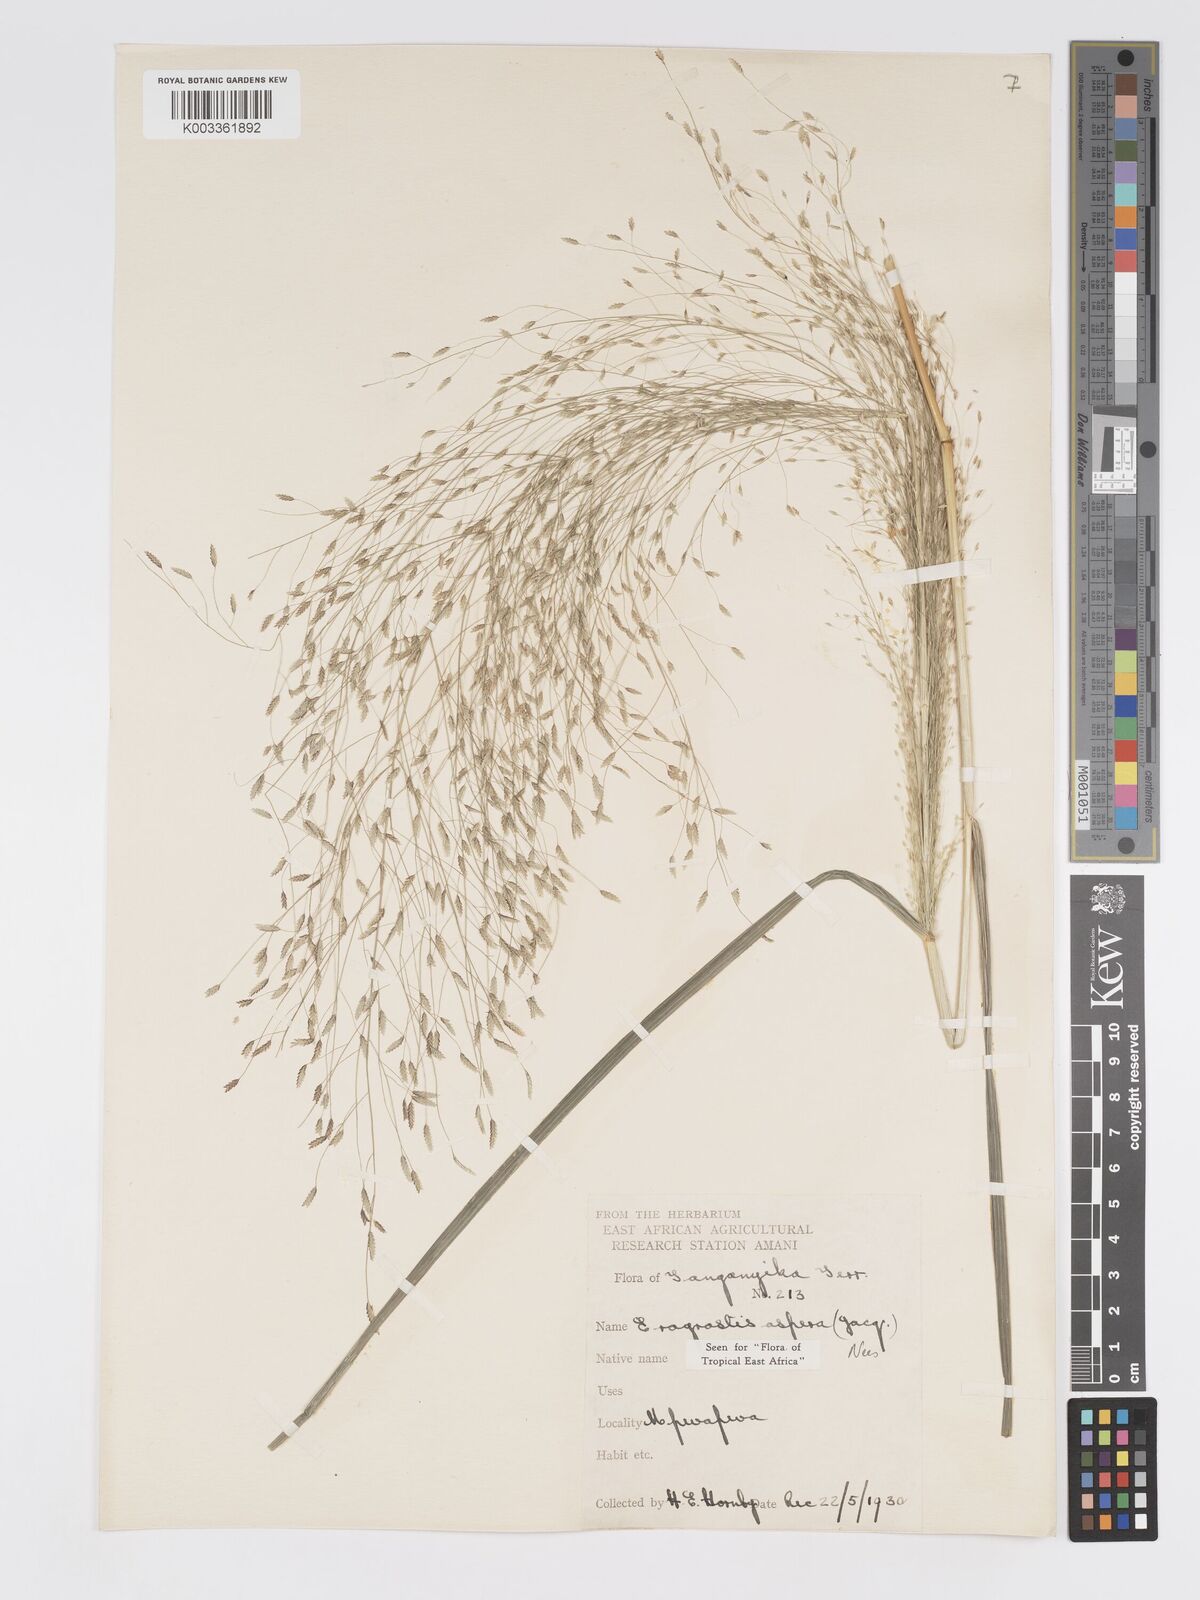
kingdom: Plantae
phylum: Tracheophyta
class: Liliopsida
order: Poales
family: Poaceae
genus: Eragrostis
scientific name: Eragrostis aspera
